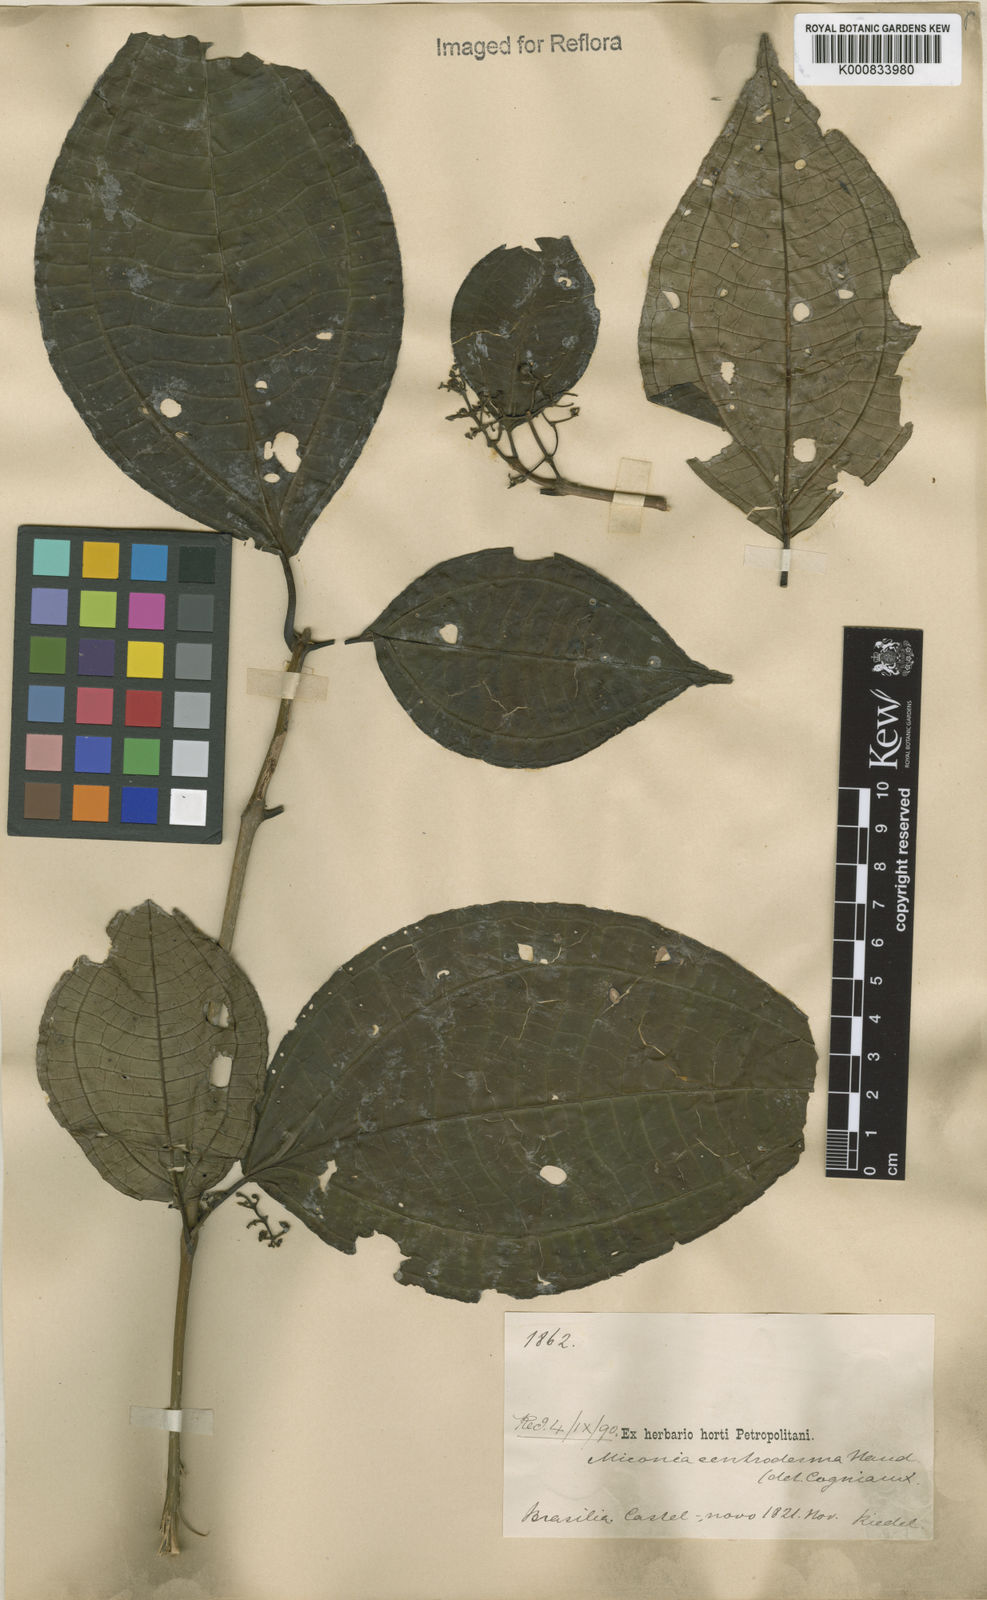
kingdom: Plantae
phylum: Tracheophyta
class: Magnoliopsida
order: Myrtales
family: Melastomataceae
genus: Miconia
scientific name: Miconia centrodesma
